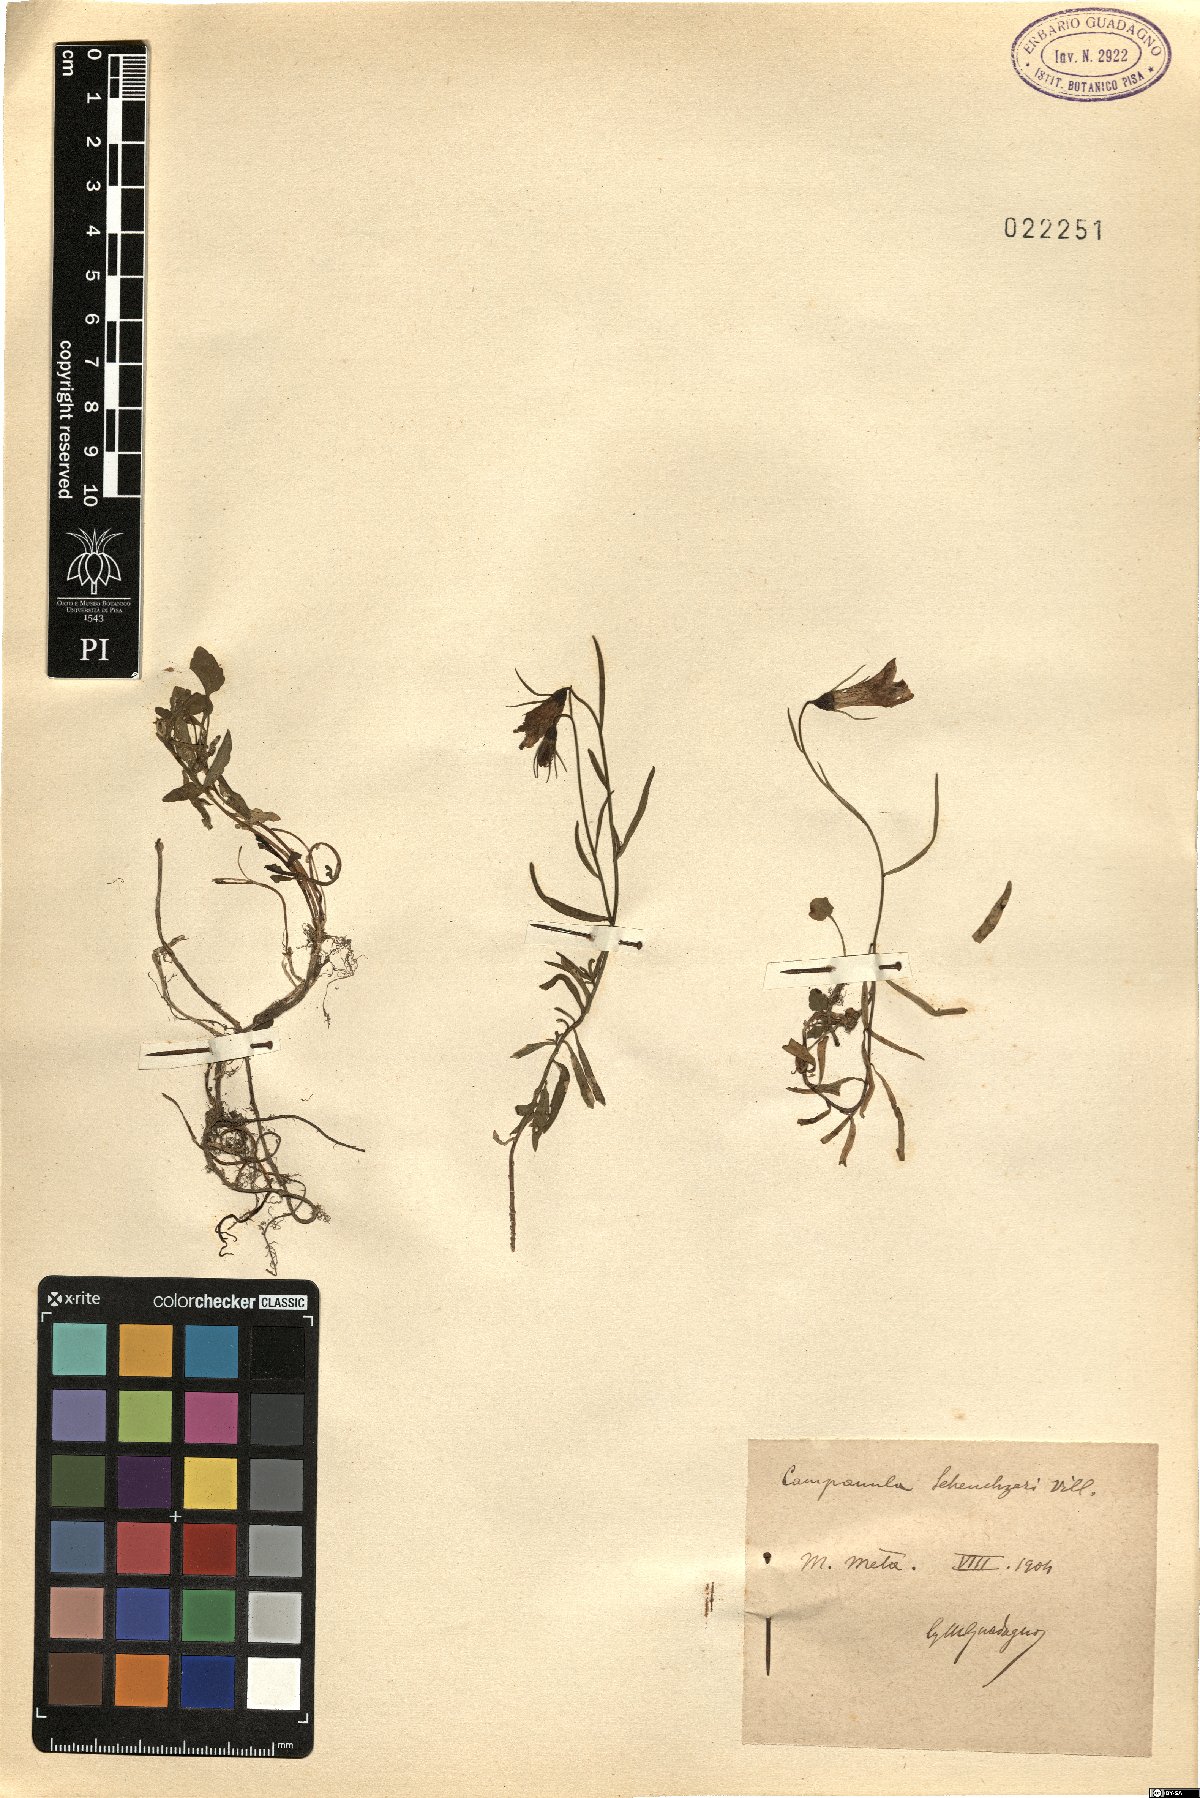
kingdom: Plantae
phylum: Tracheophyta
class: Magnoliopsida
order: Asterales
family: Campanulaceae
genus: Campanula
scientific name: Campanula scheuchzeri
